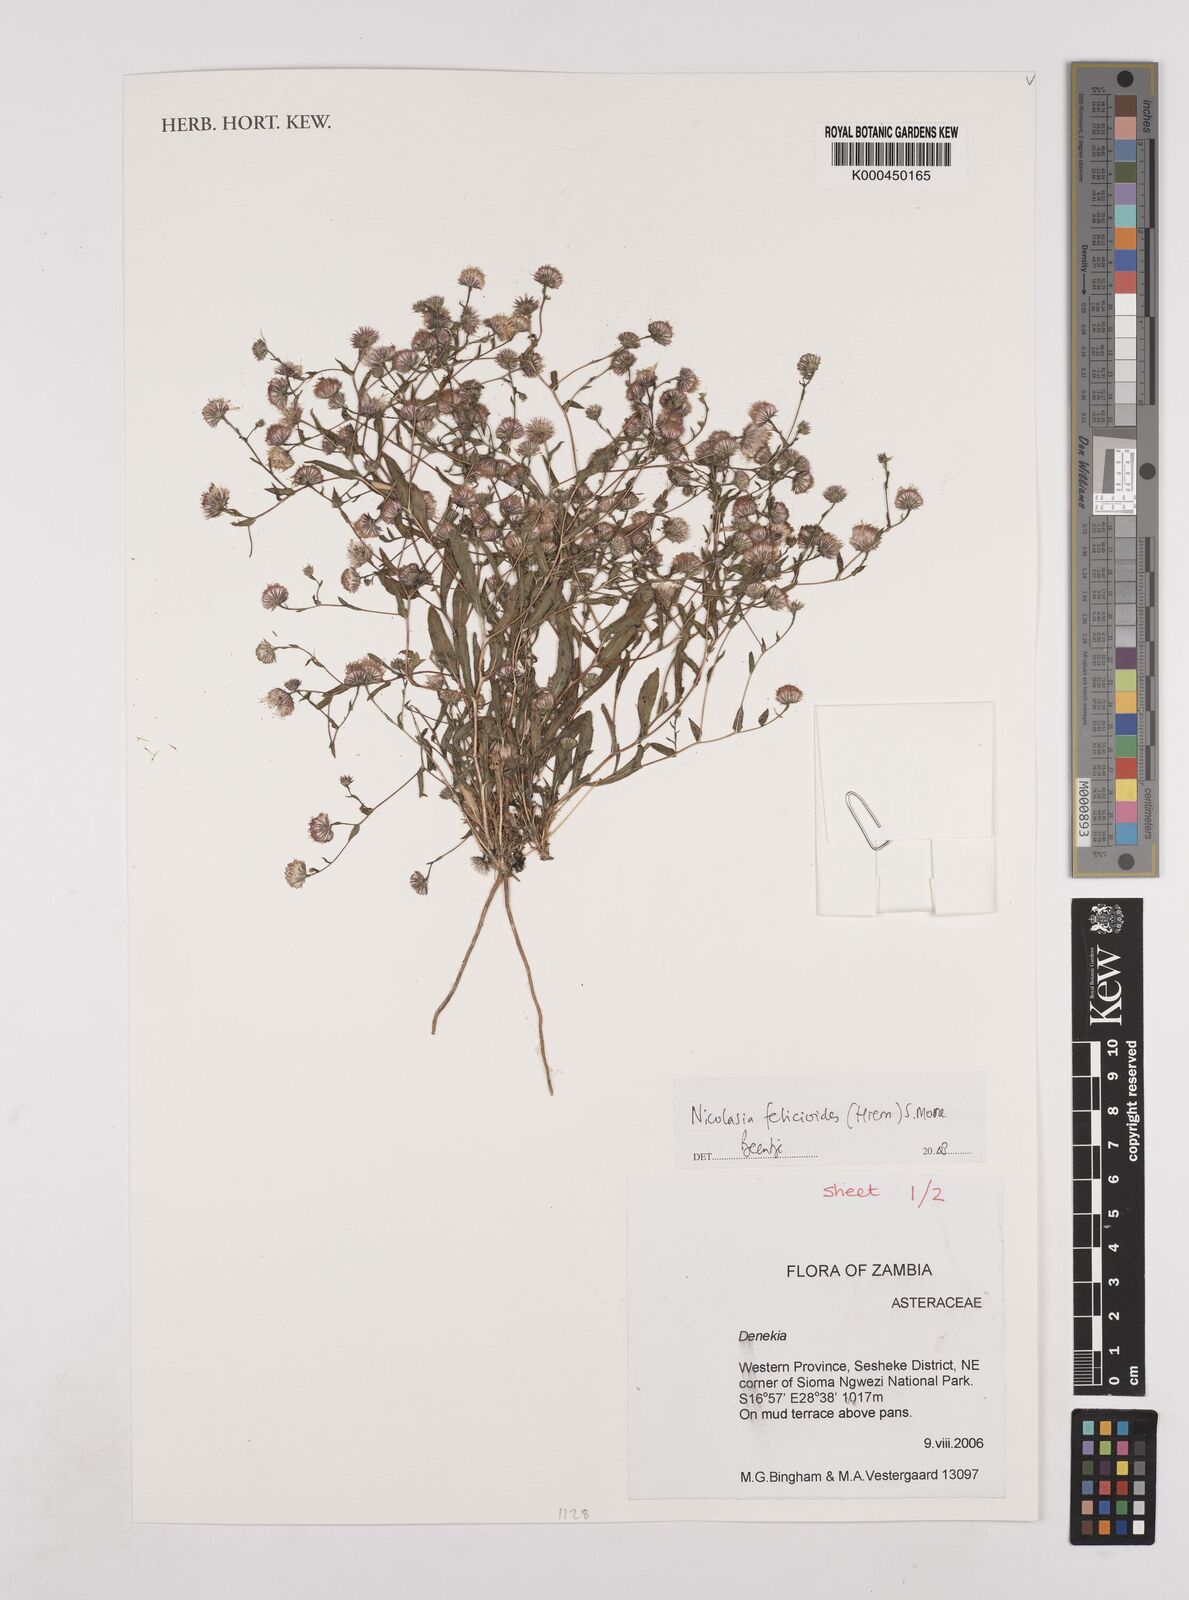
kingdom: Plantae
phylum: Tracheophyta
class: Magnoliopsida
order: Asterales
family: Asteraceae
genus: Nicolasia
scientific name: Nicolasia felicioides
